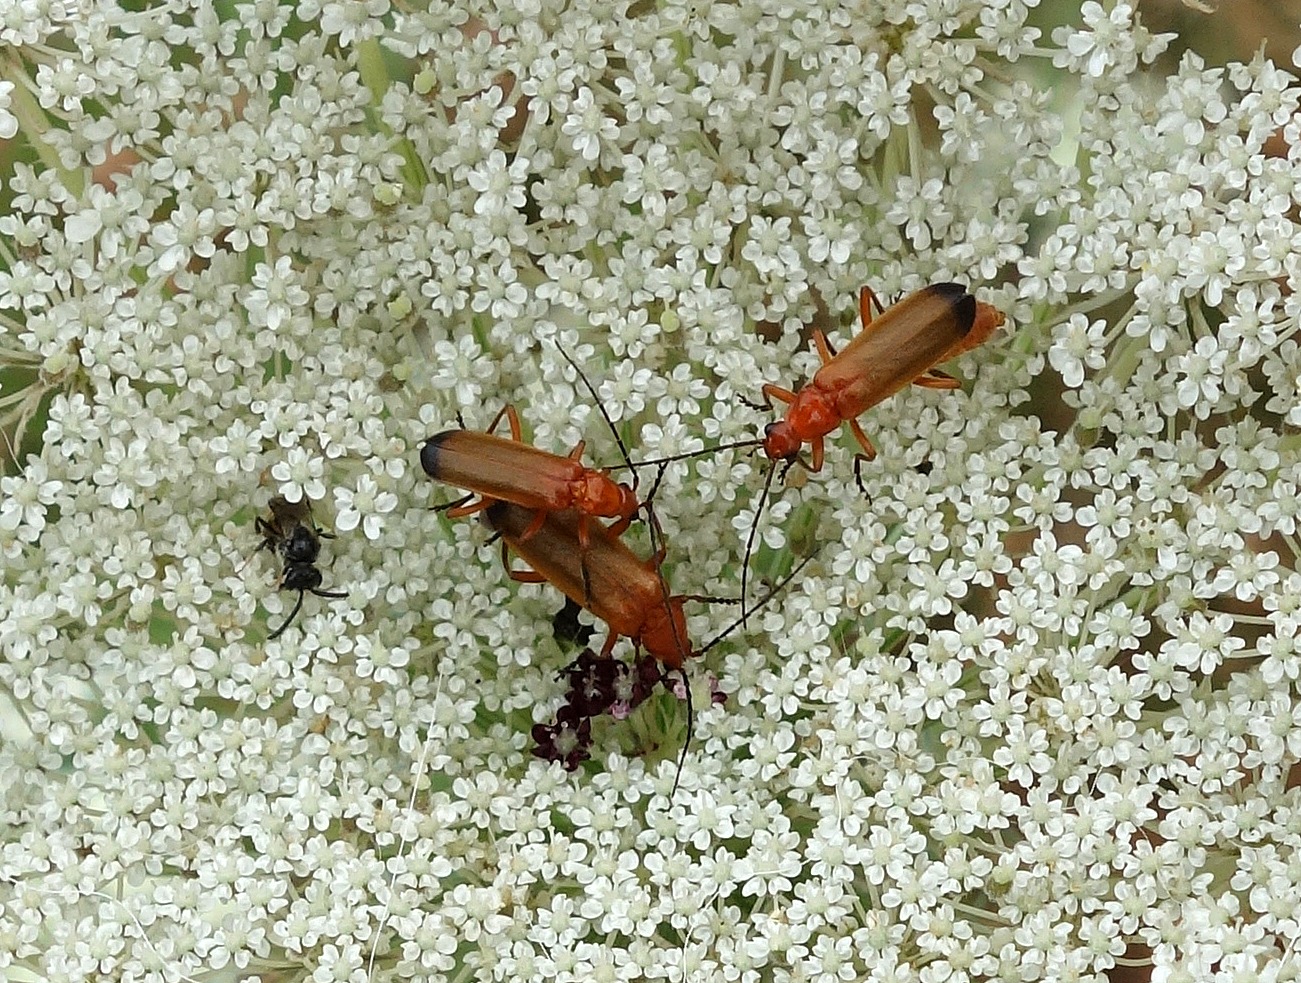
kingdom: Animalia
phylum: Arthropoda
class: Insecta
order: Coleoptera
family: Cantharidae
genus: Rhagonycha
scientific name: Rhagonycha fulva
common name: Præstebille
